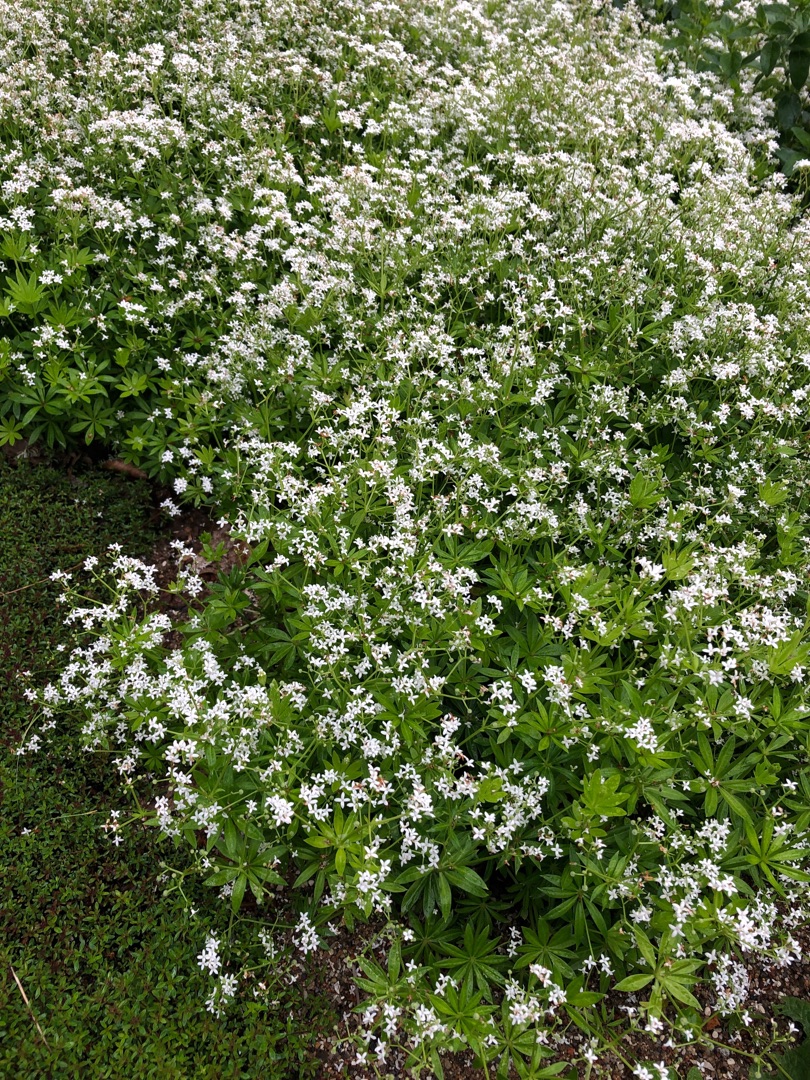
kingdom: Plantae
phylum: Tracheophyta
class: Magnoliopsida
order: Gentianales
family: Rubiaceae
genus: Galium
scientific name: Galium odoratum
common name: Skovmærke
